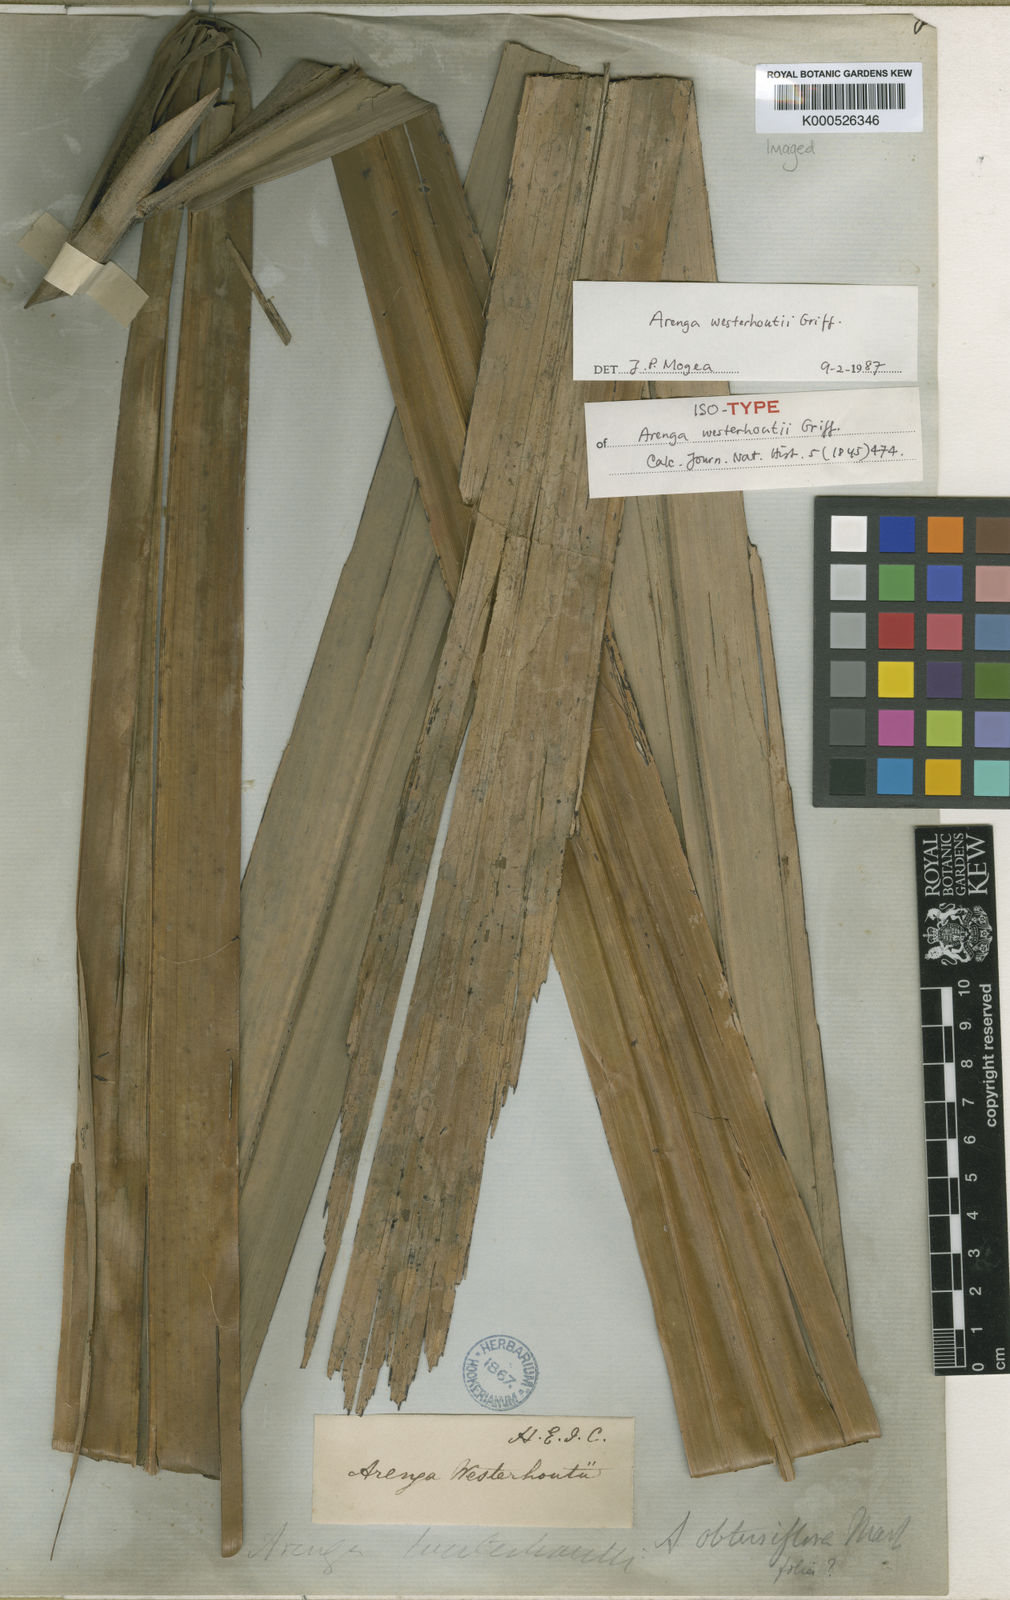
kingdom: Plantae
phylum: Tracheophyta
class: Liliopsida
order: Arecales
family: Arecaceae
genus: Arenga
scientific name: Arenga westerhoutii
